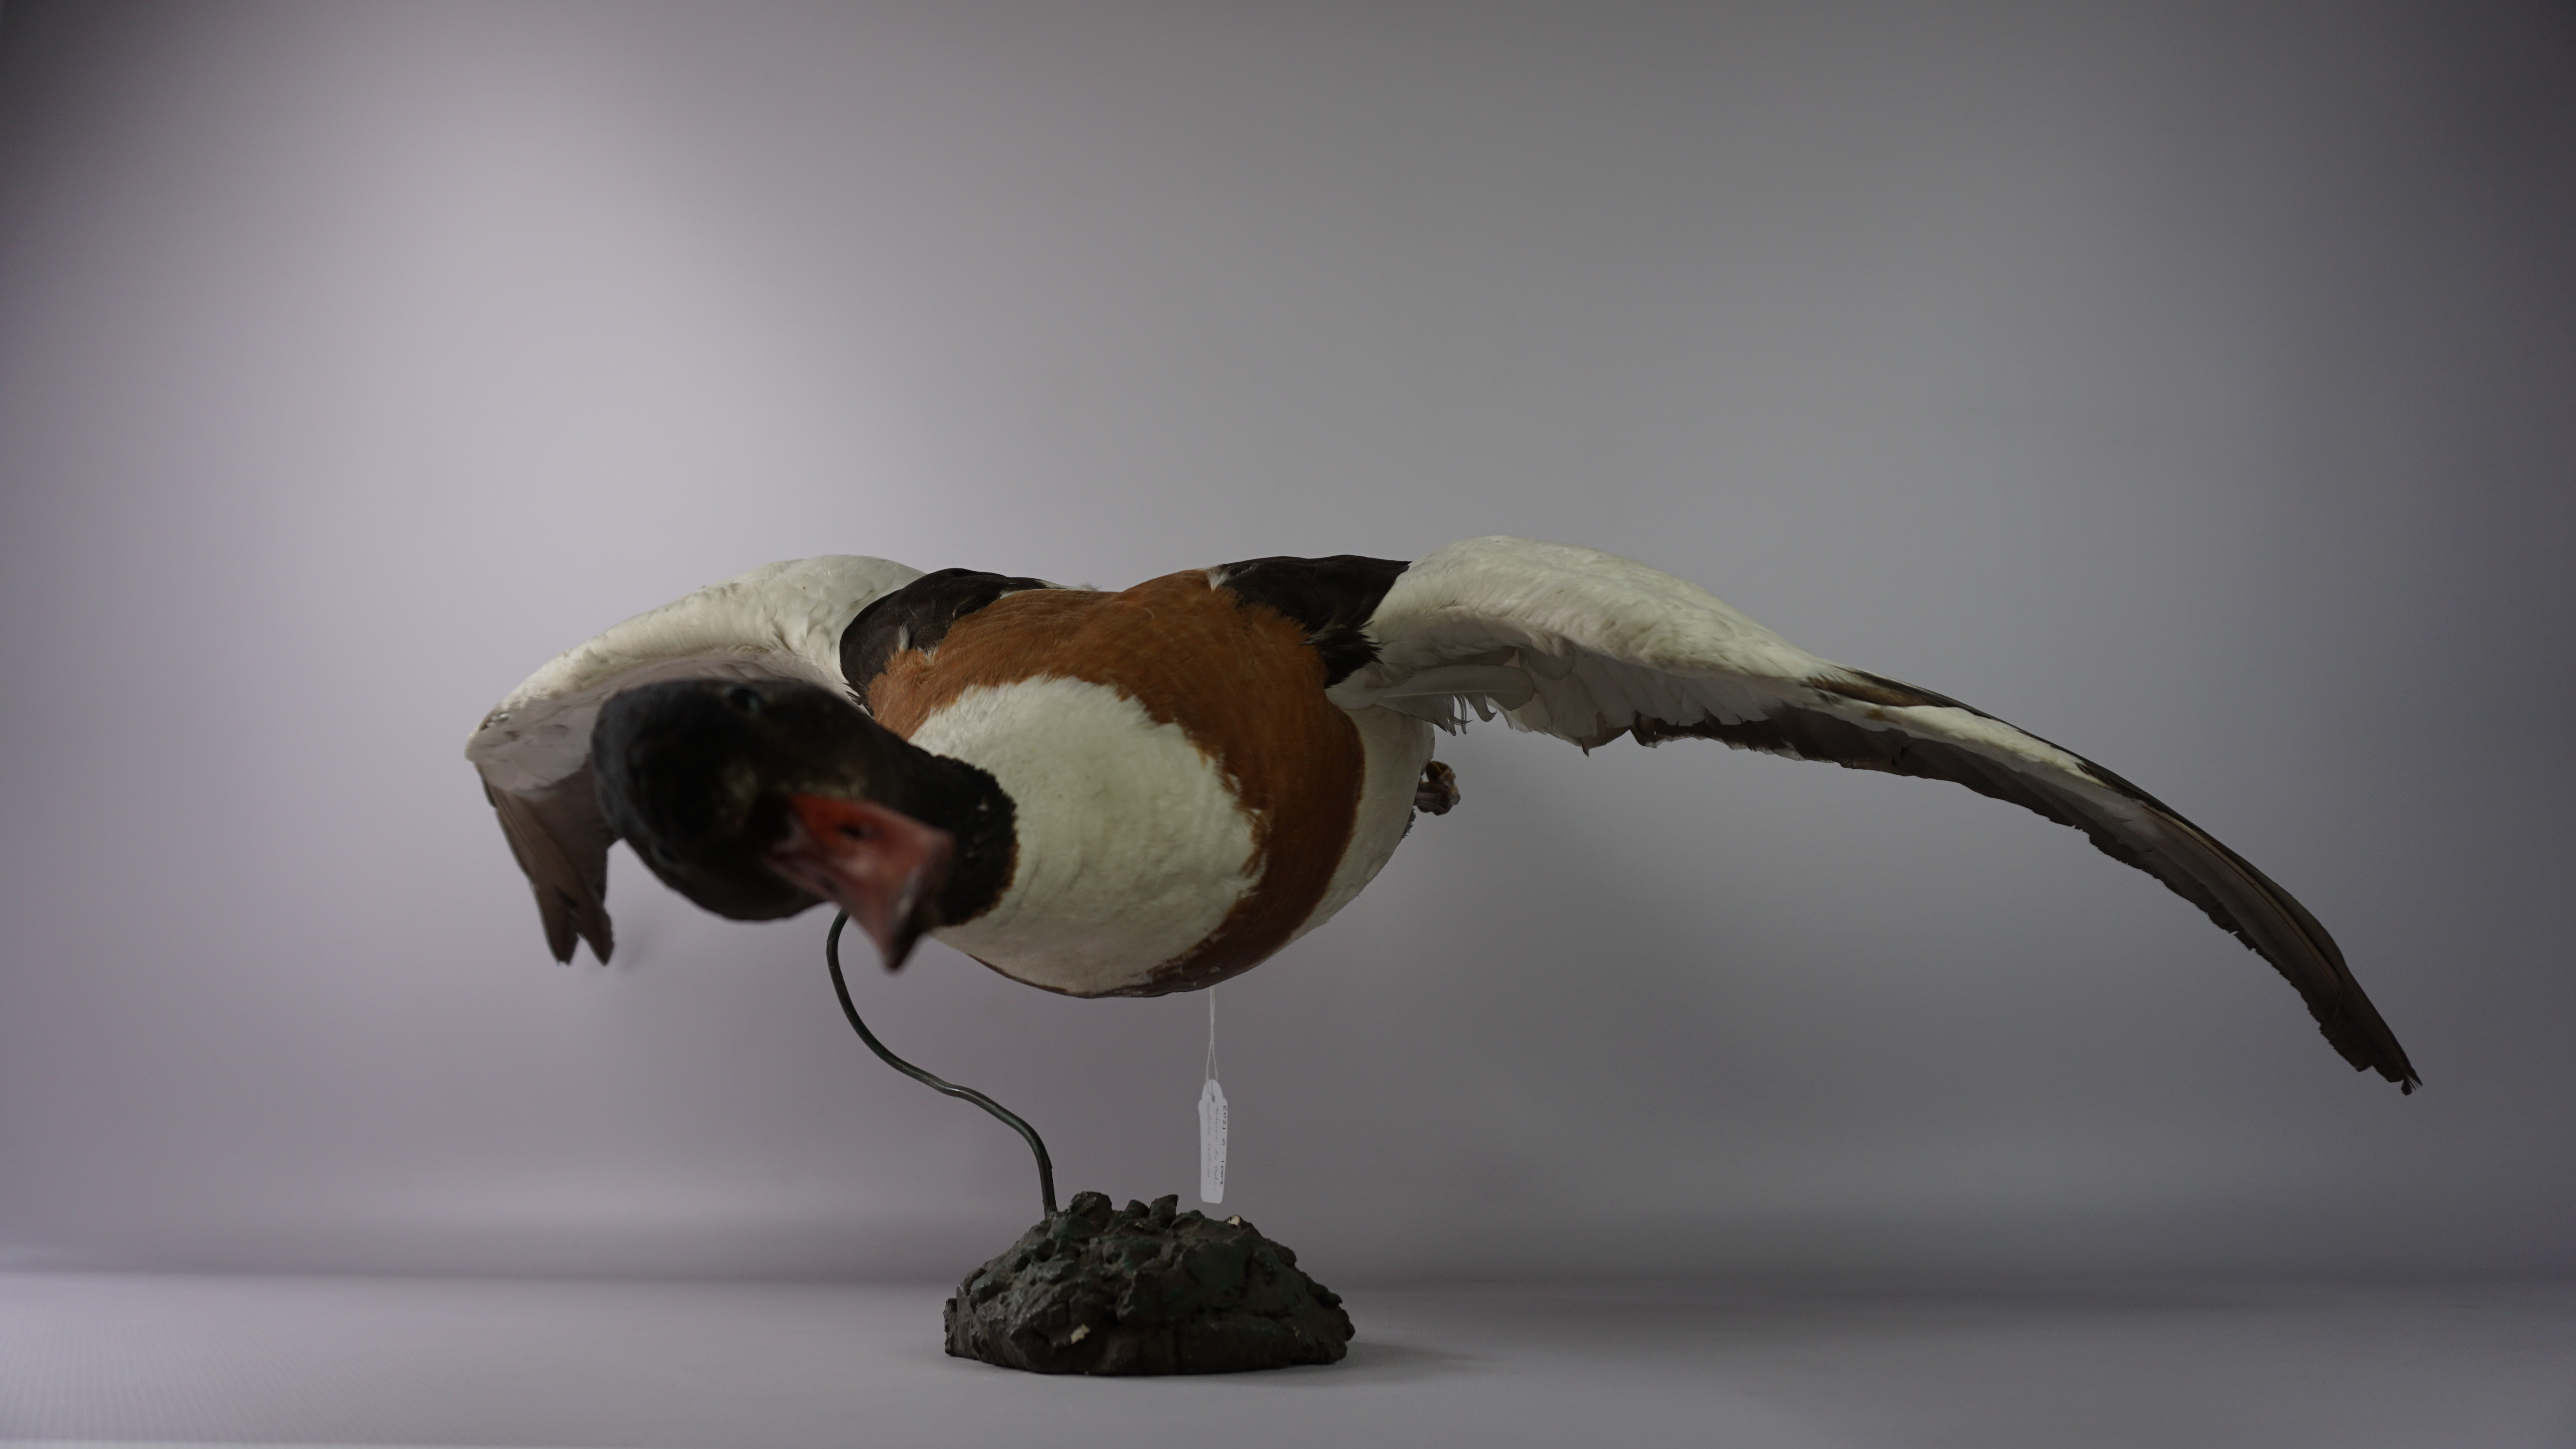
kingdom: Animalia
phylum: Chordata
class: Aves
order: Anseriformes
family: Anatidae
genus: Tadorna
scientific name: Tadorna tadorna
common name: Common shelduck
